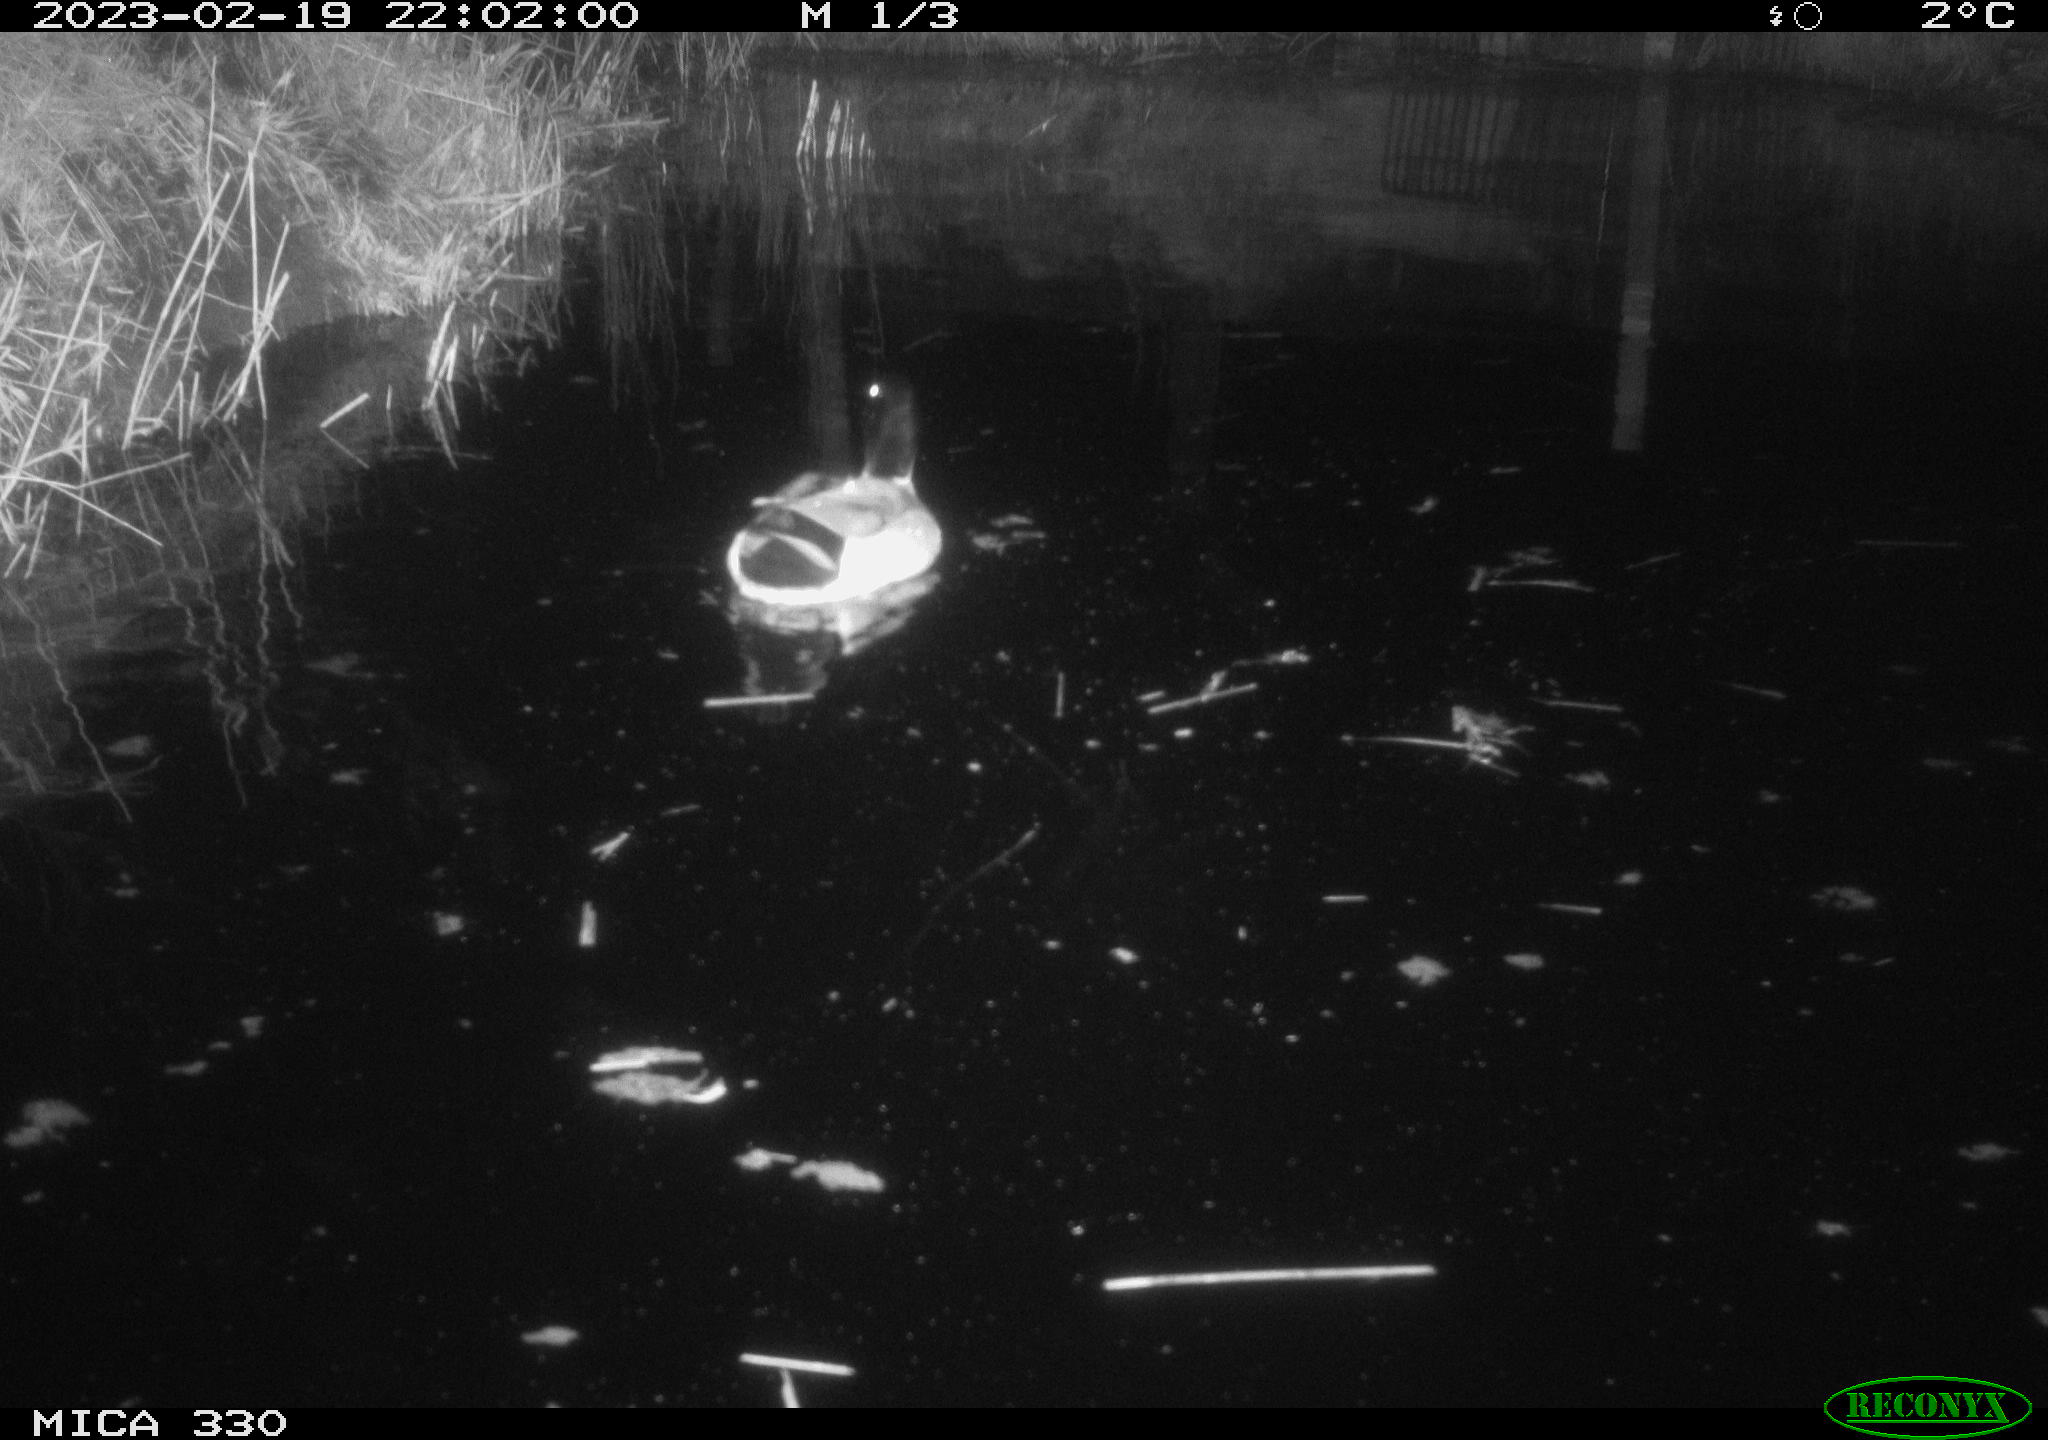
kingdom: Animalia
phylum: Chordata
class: Aves
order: Anseriformes
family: Anatidae
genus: Anas
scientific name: Anas
